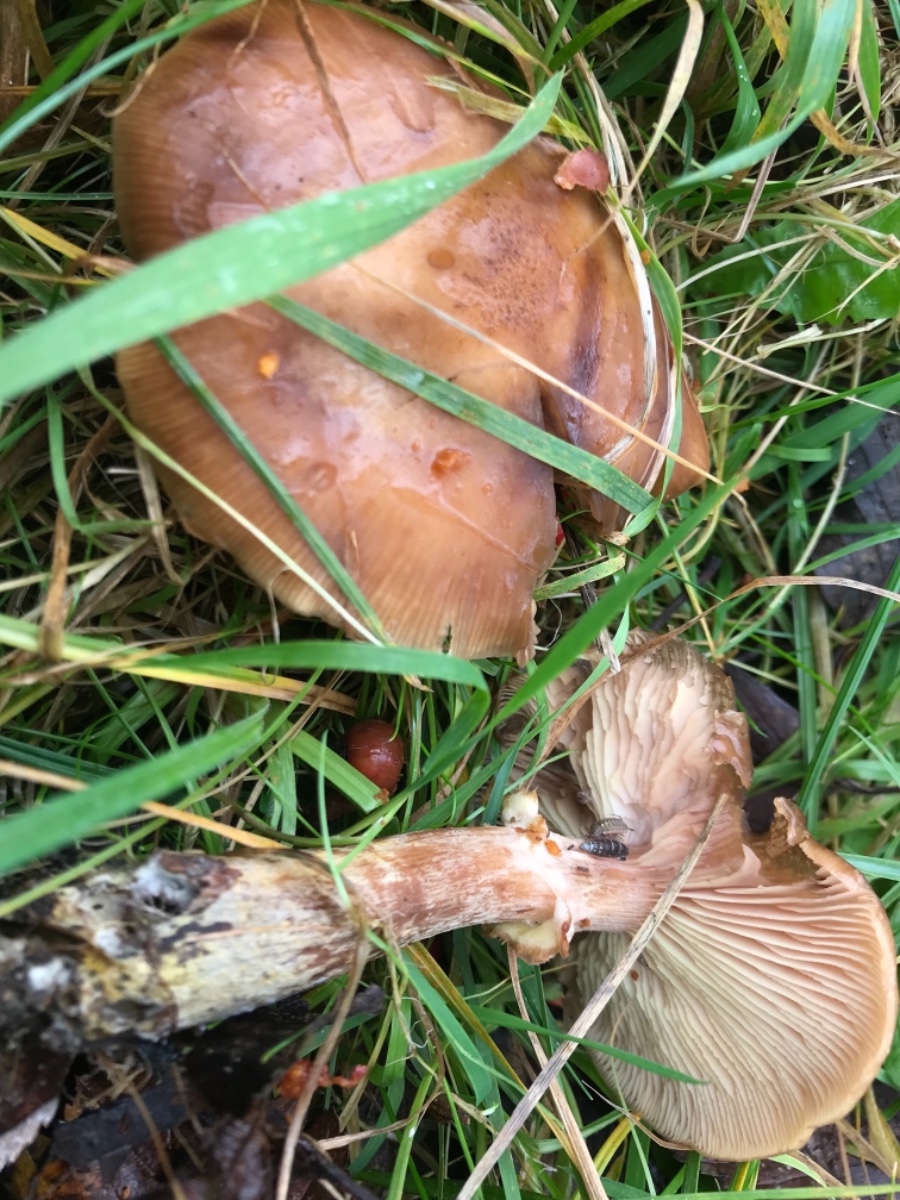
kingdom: Fungi
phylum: Basidiomycota
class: Agaricomycetes
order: Agaricales
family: Physalacriaceae
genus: Armillaria
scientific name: Armillaria lutea
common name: køllestokket honningsvamp
